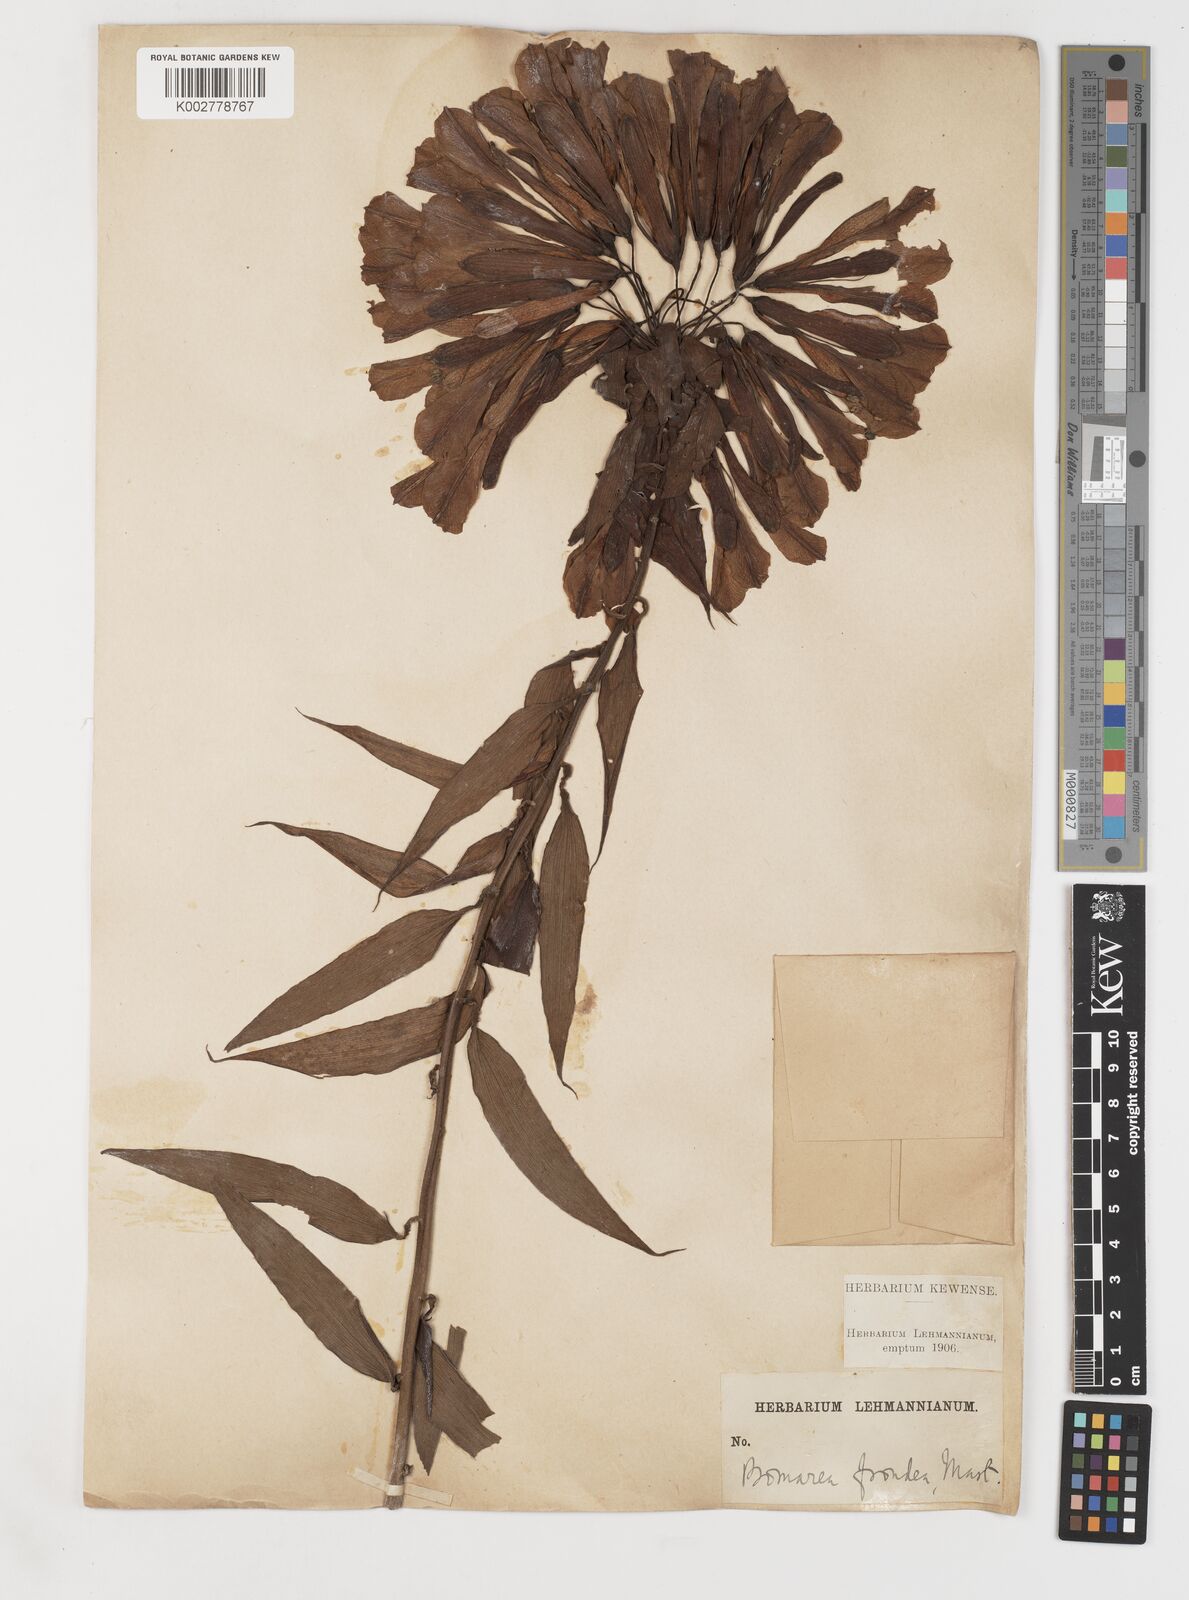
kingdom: Plantae
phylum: Tracheophyta
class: Liliopsida
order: Liliales
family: Alstroemeriaceae
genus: Bomarea
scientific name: Bomarea patinii
